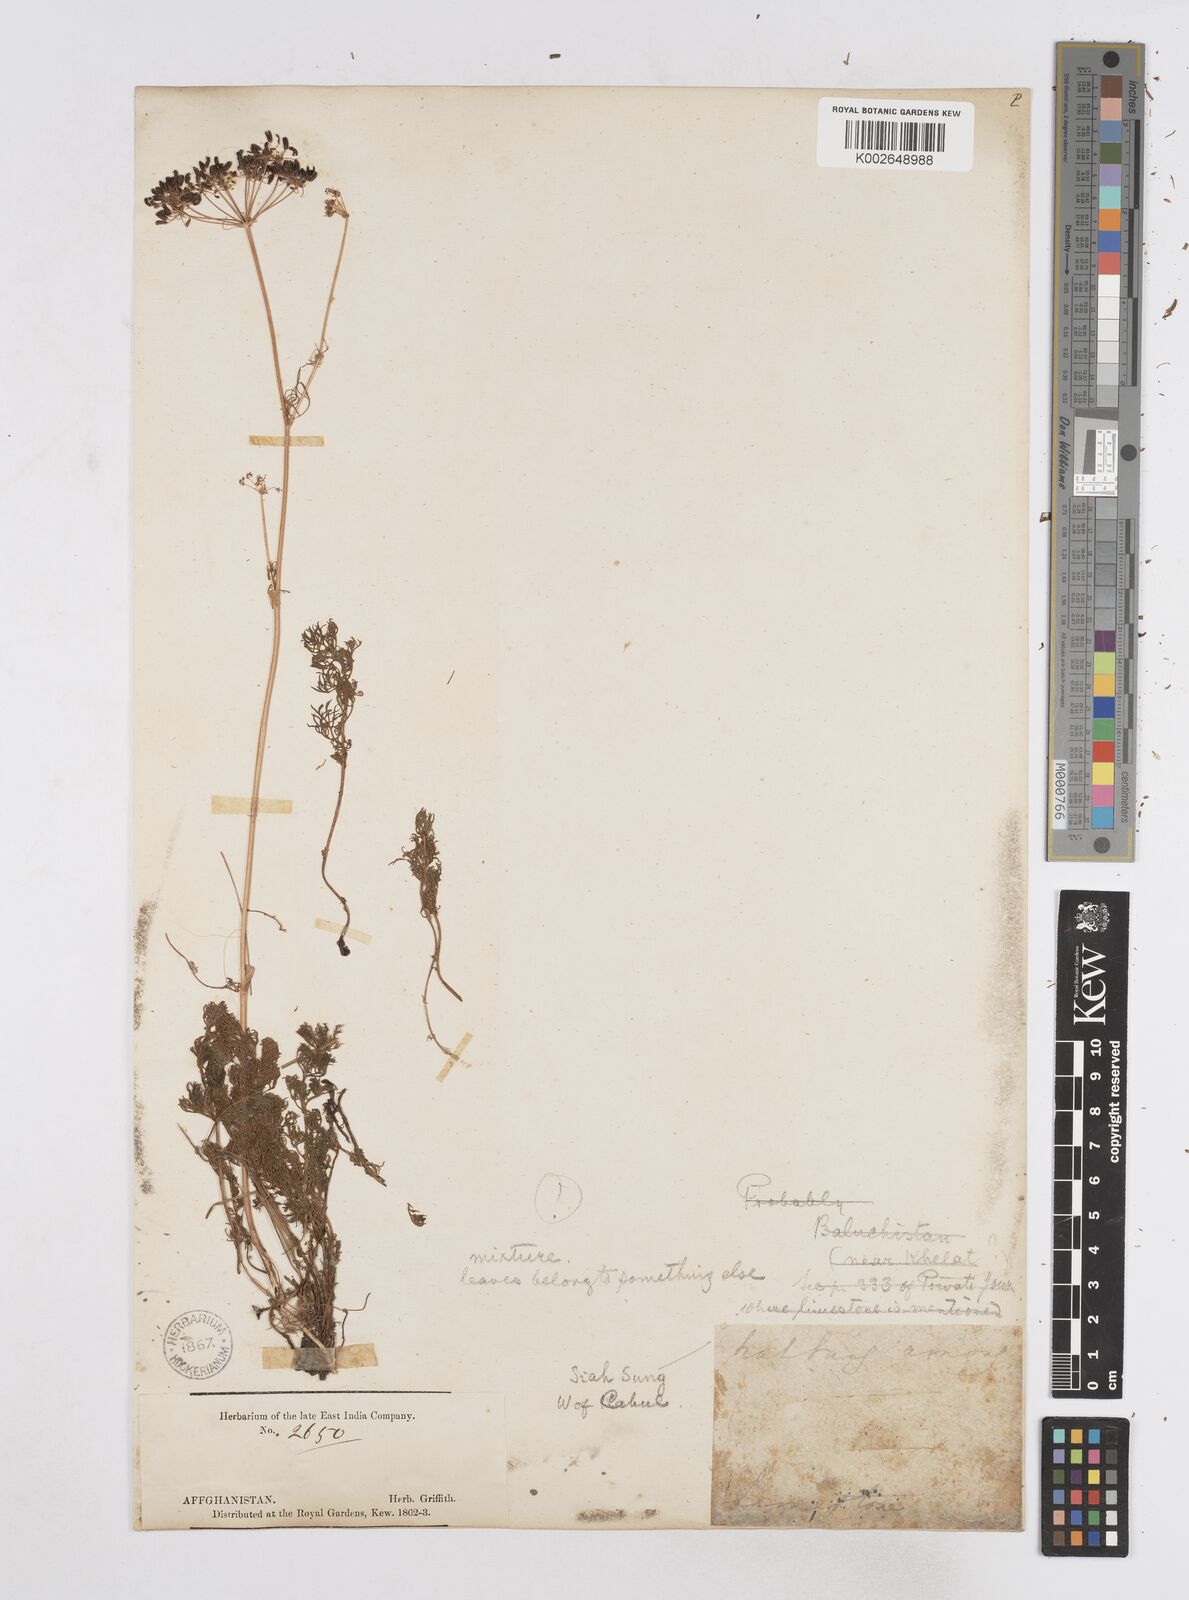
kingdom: Plantae
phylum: Tracheophyta
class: Magnoliopsida
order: Apiales
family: Apiaceae
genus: Elwendia
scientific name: Elwendia afghanica
